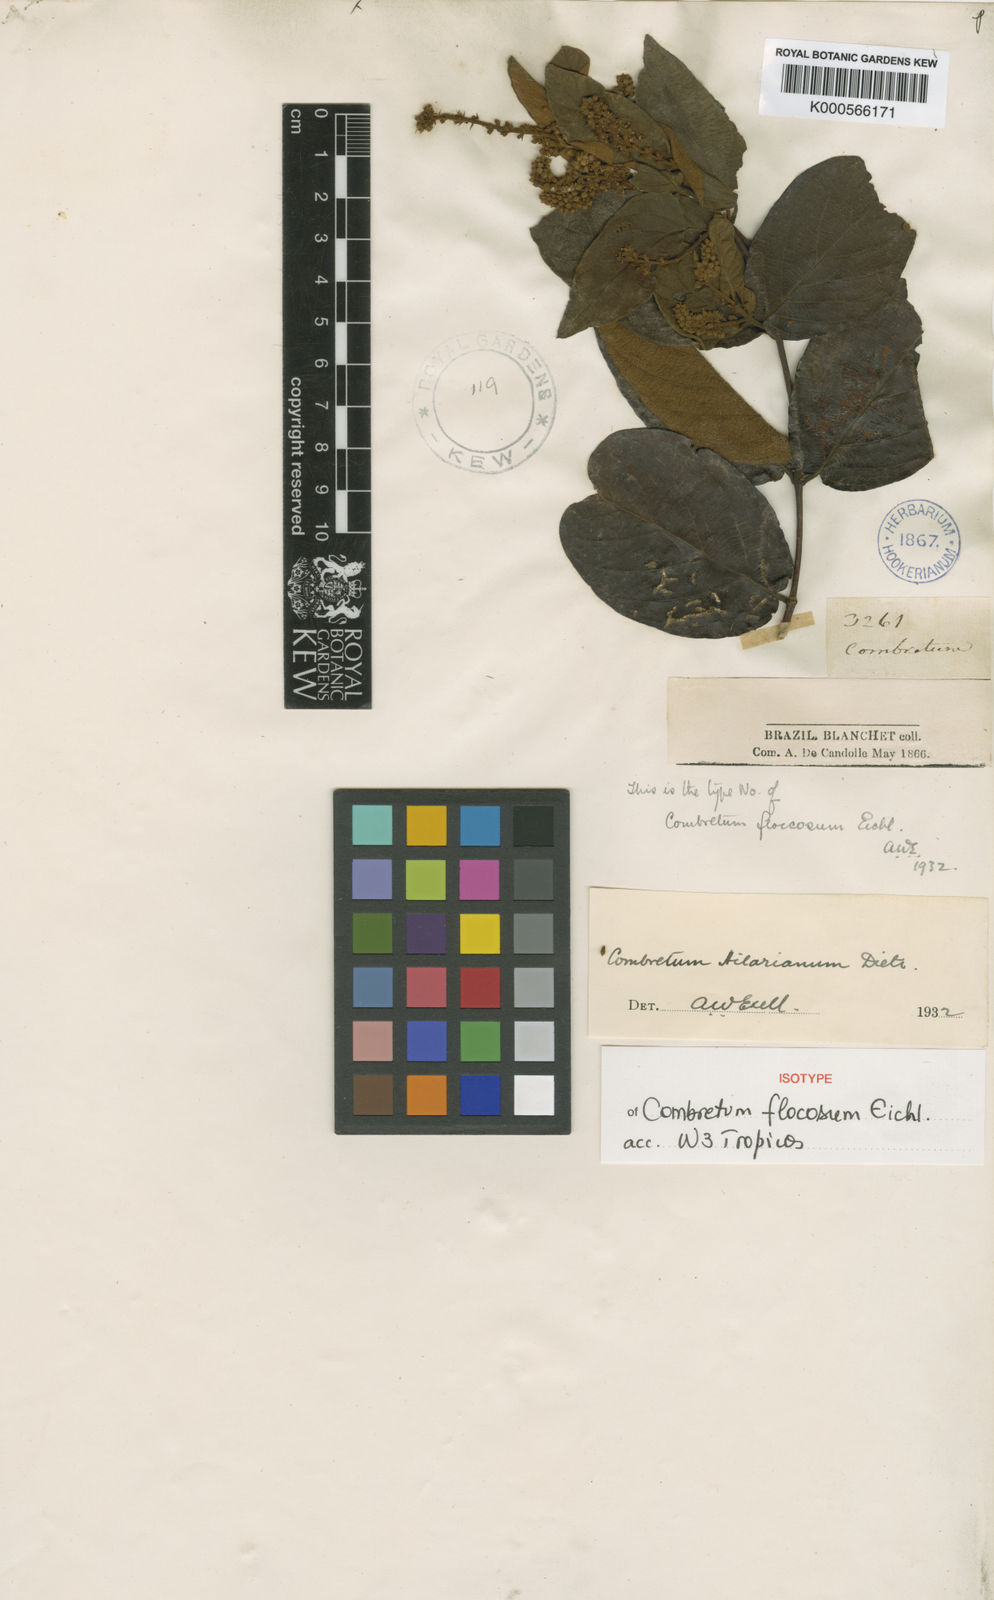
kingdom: Plantae
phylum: Tracheophyta
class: Magnoliopsida
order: Myrtales
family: Combretaceae
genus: Combretum
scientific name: Combretum hilarianum
